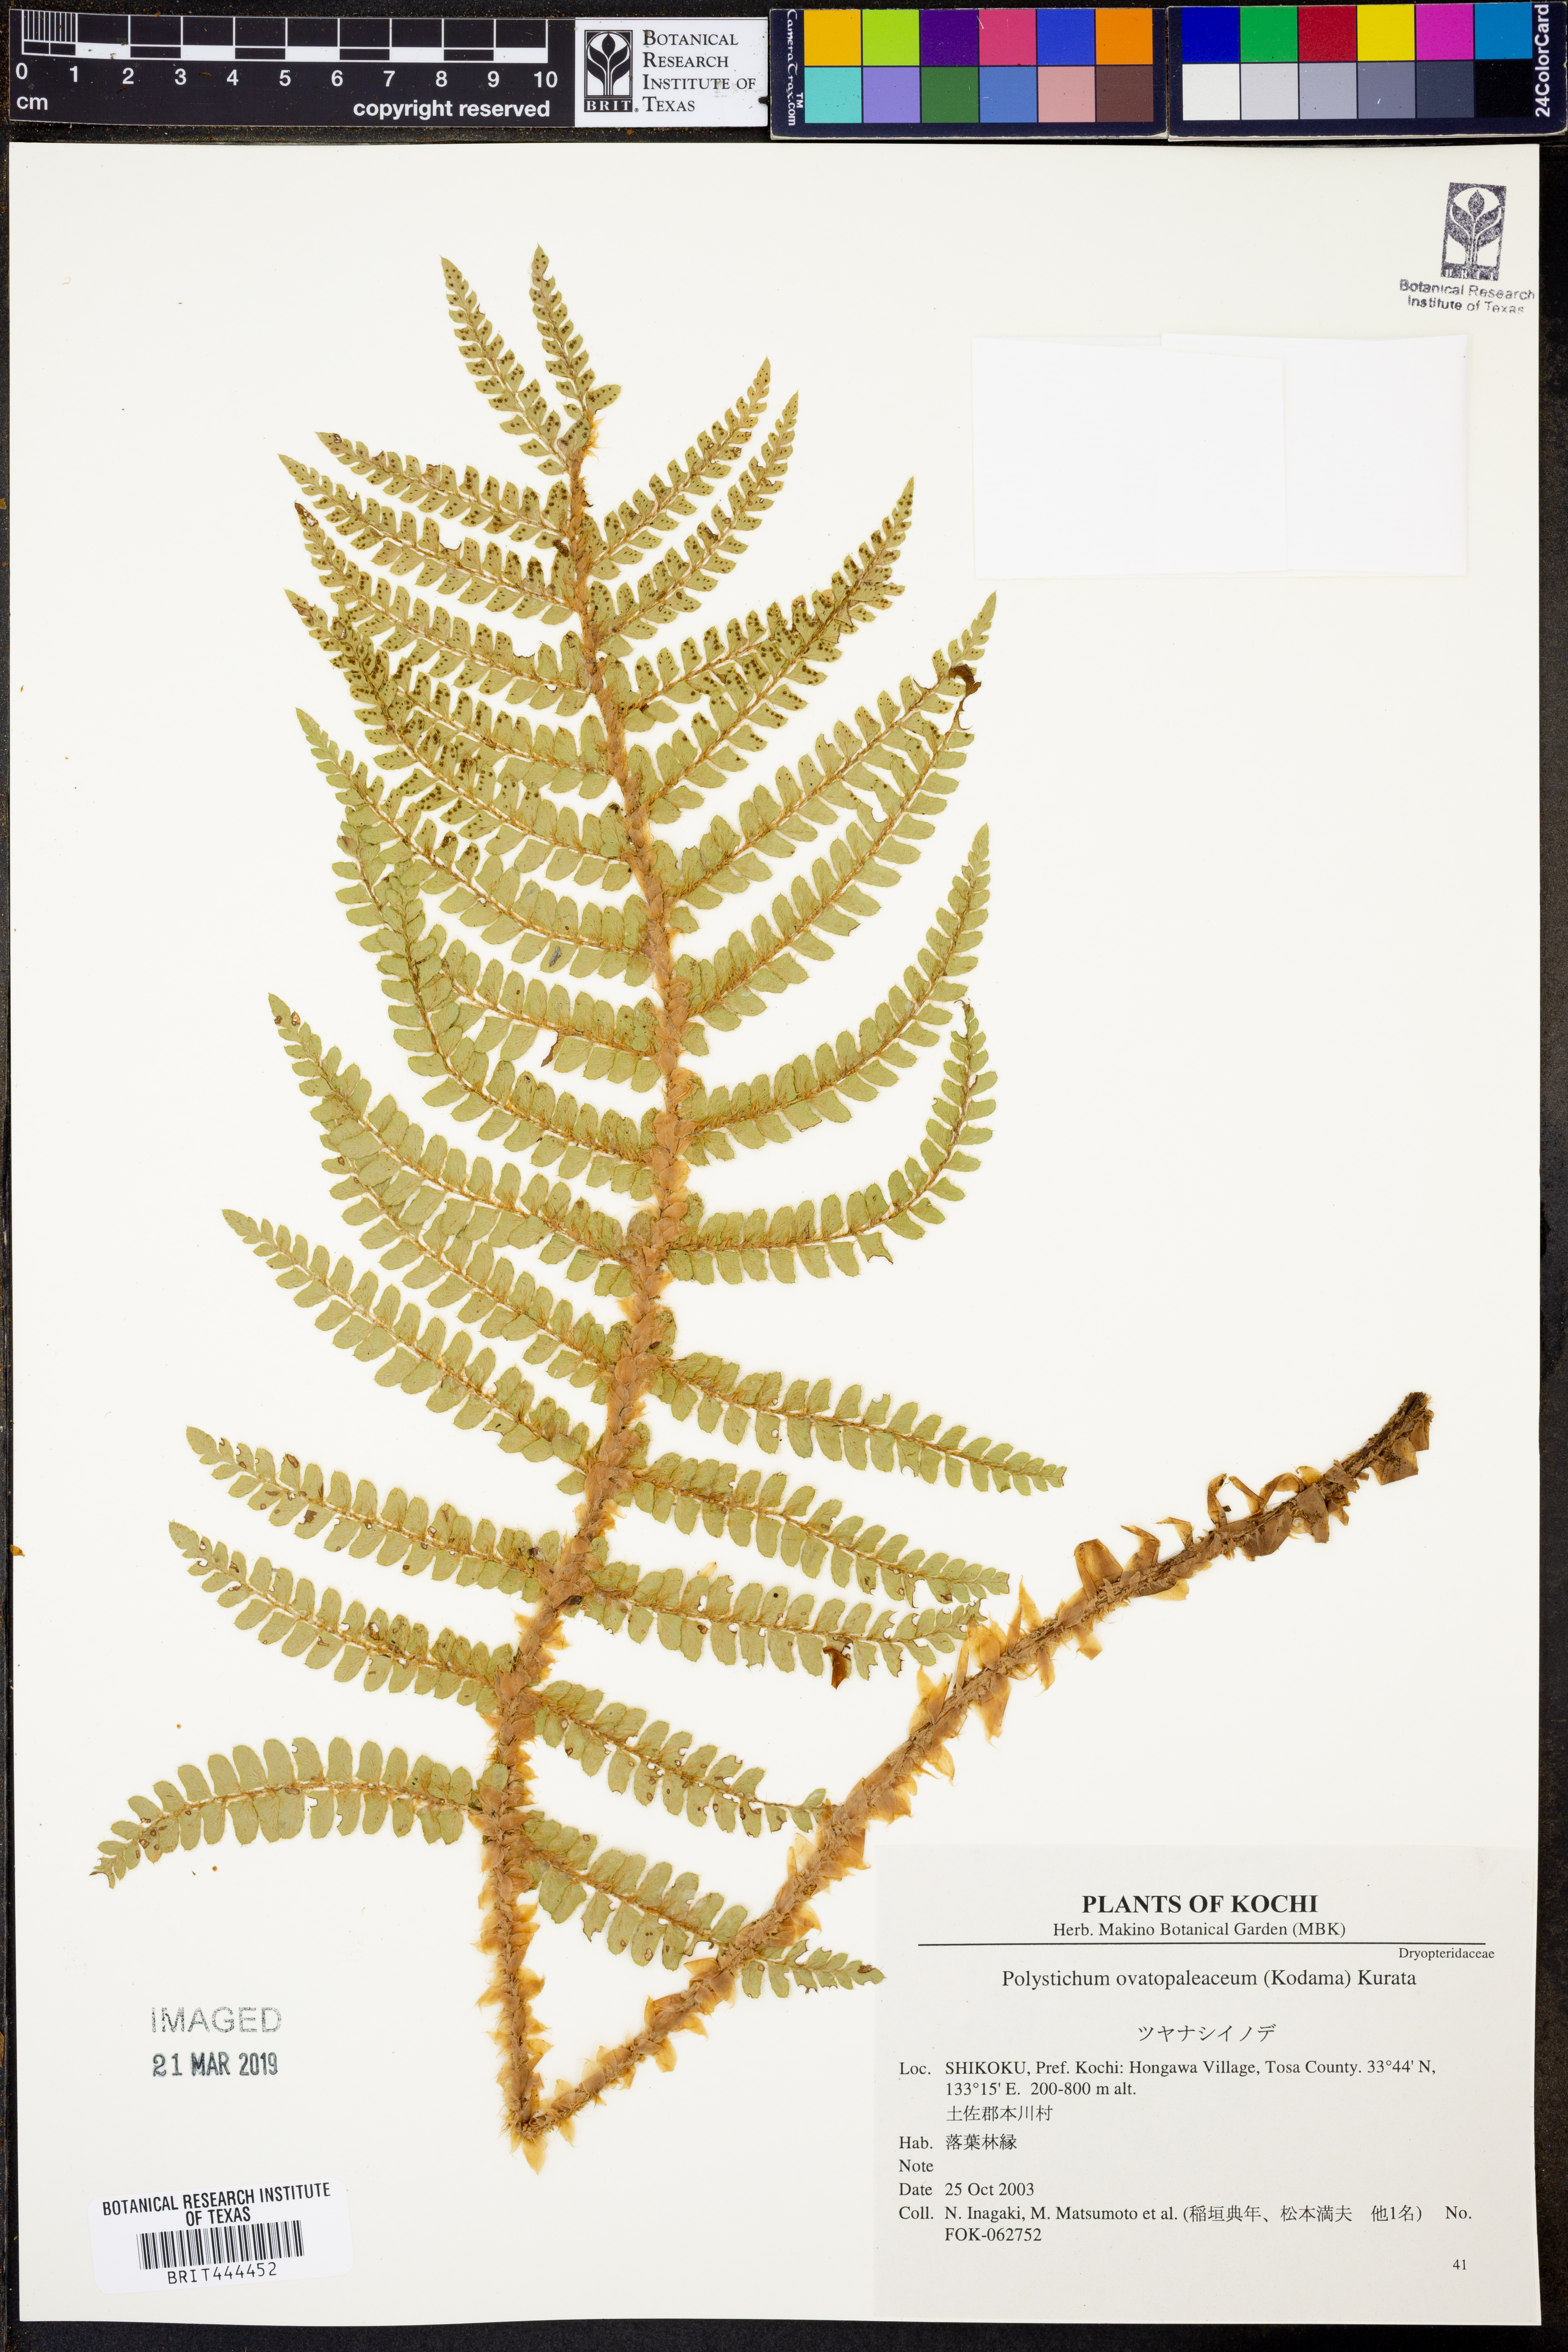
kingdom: Plantae
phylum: Tracheophyta
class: Polypodiopsida
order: Polypodiales
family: Dryopteridaceae
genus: Polystichum
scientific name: Polystichum ovatopaleaceum
